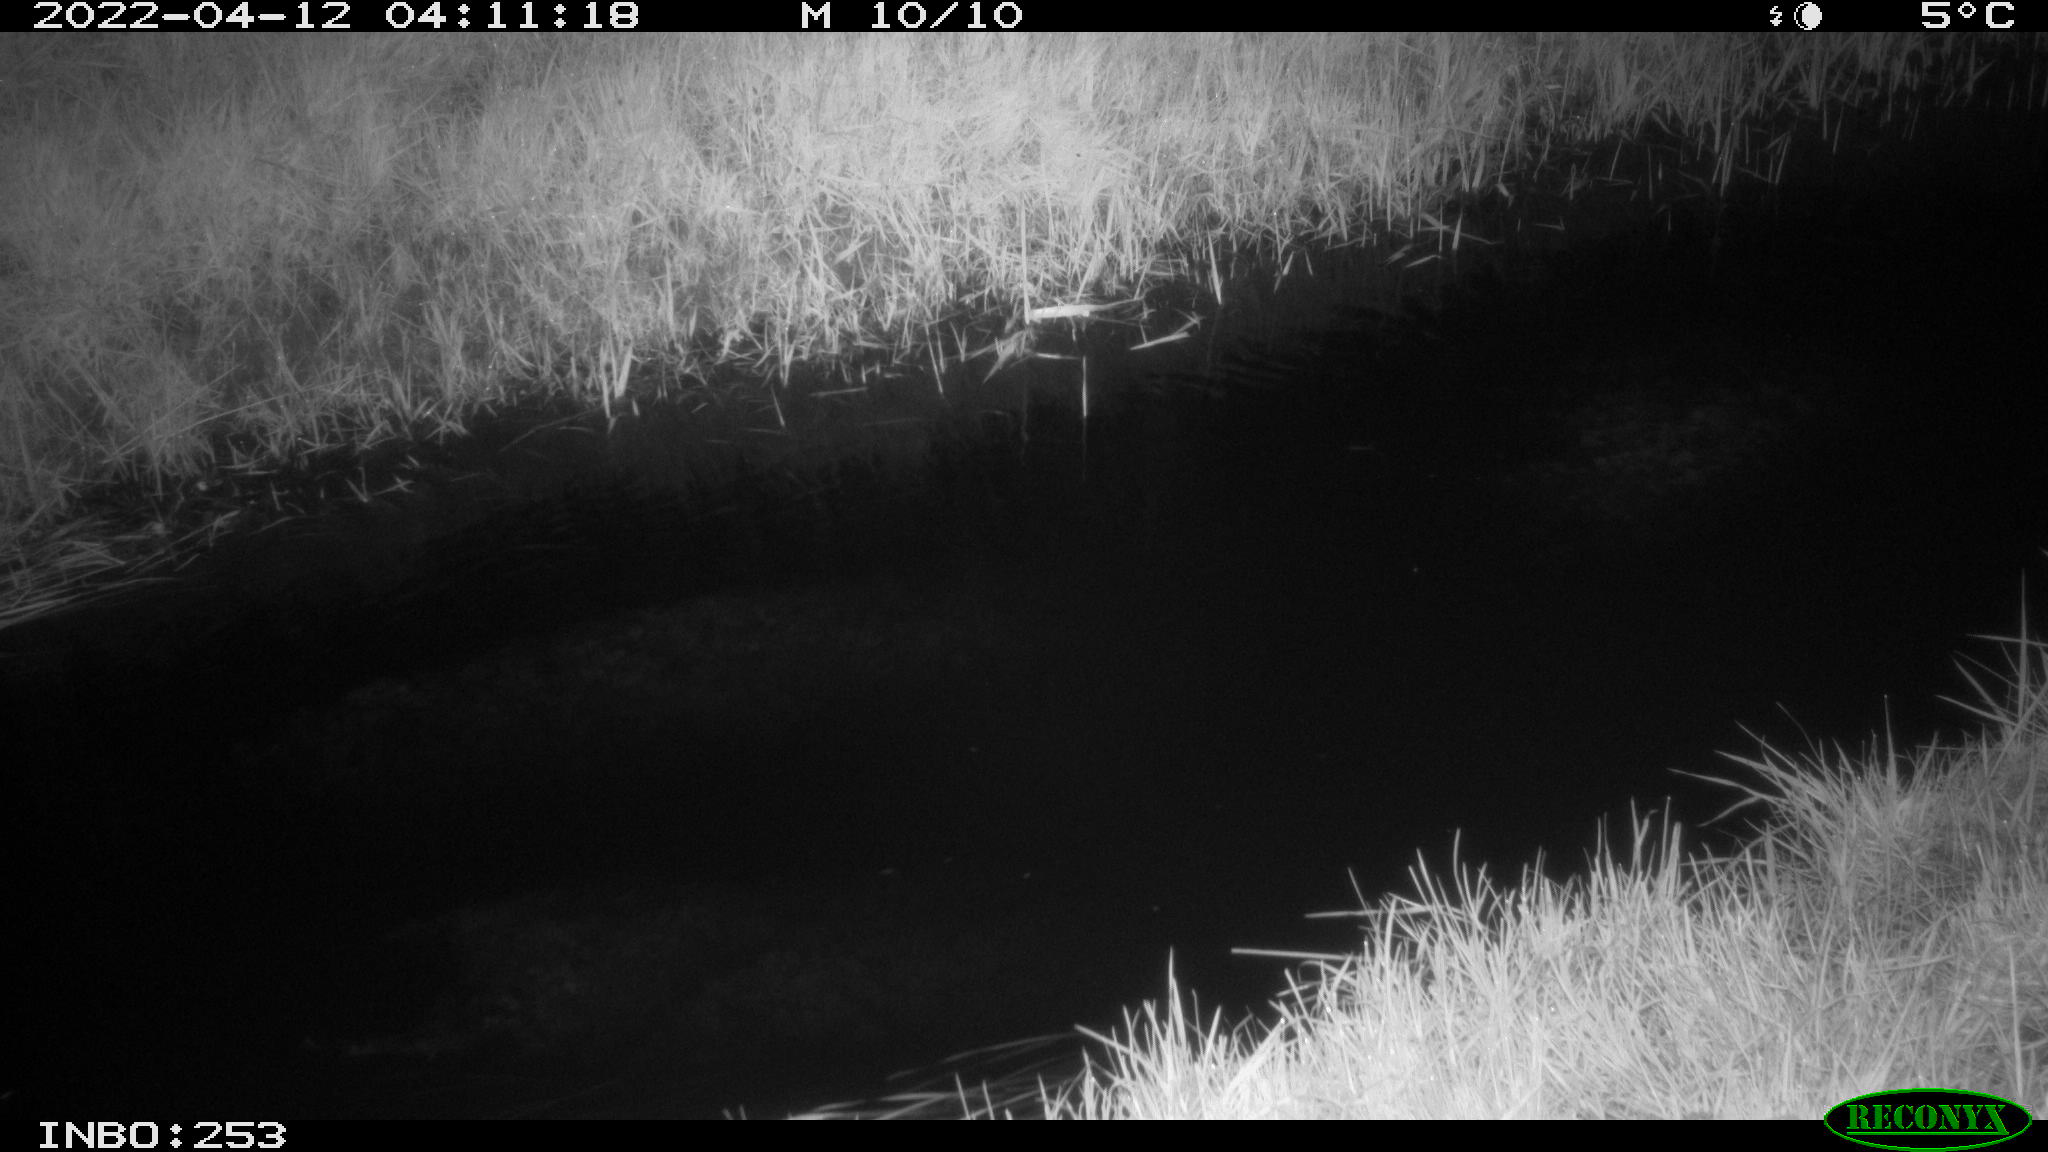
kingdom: Animalia
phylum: Chordata
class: Aves
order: Anseriformes
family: Anatidae
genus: Anas
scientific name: Anas platyrhynchos
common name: Mallard
